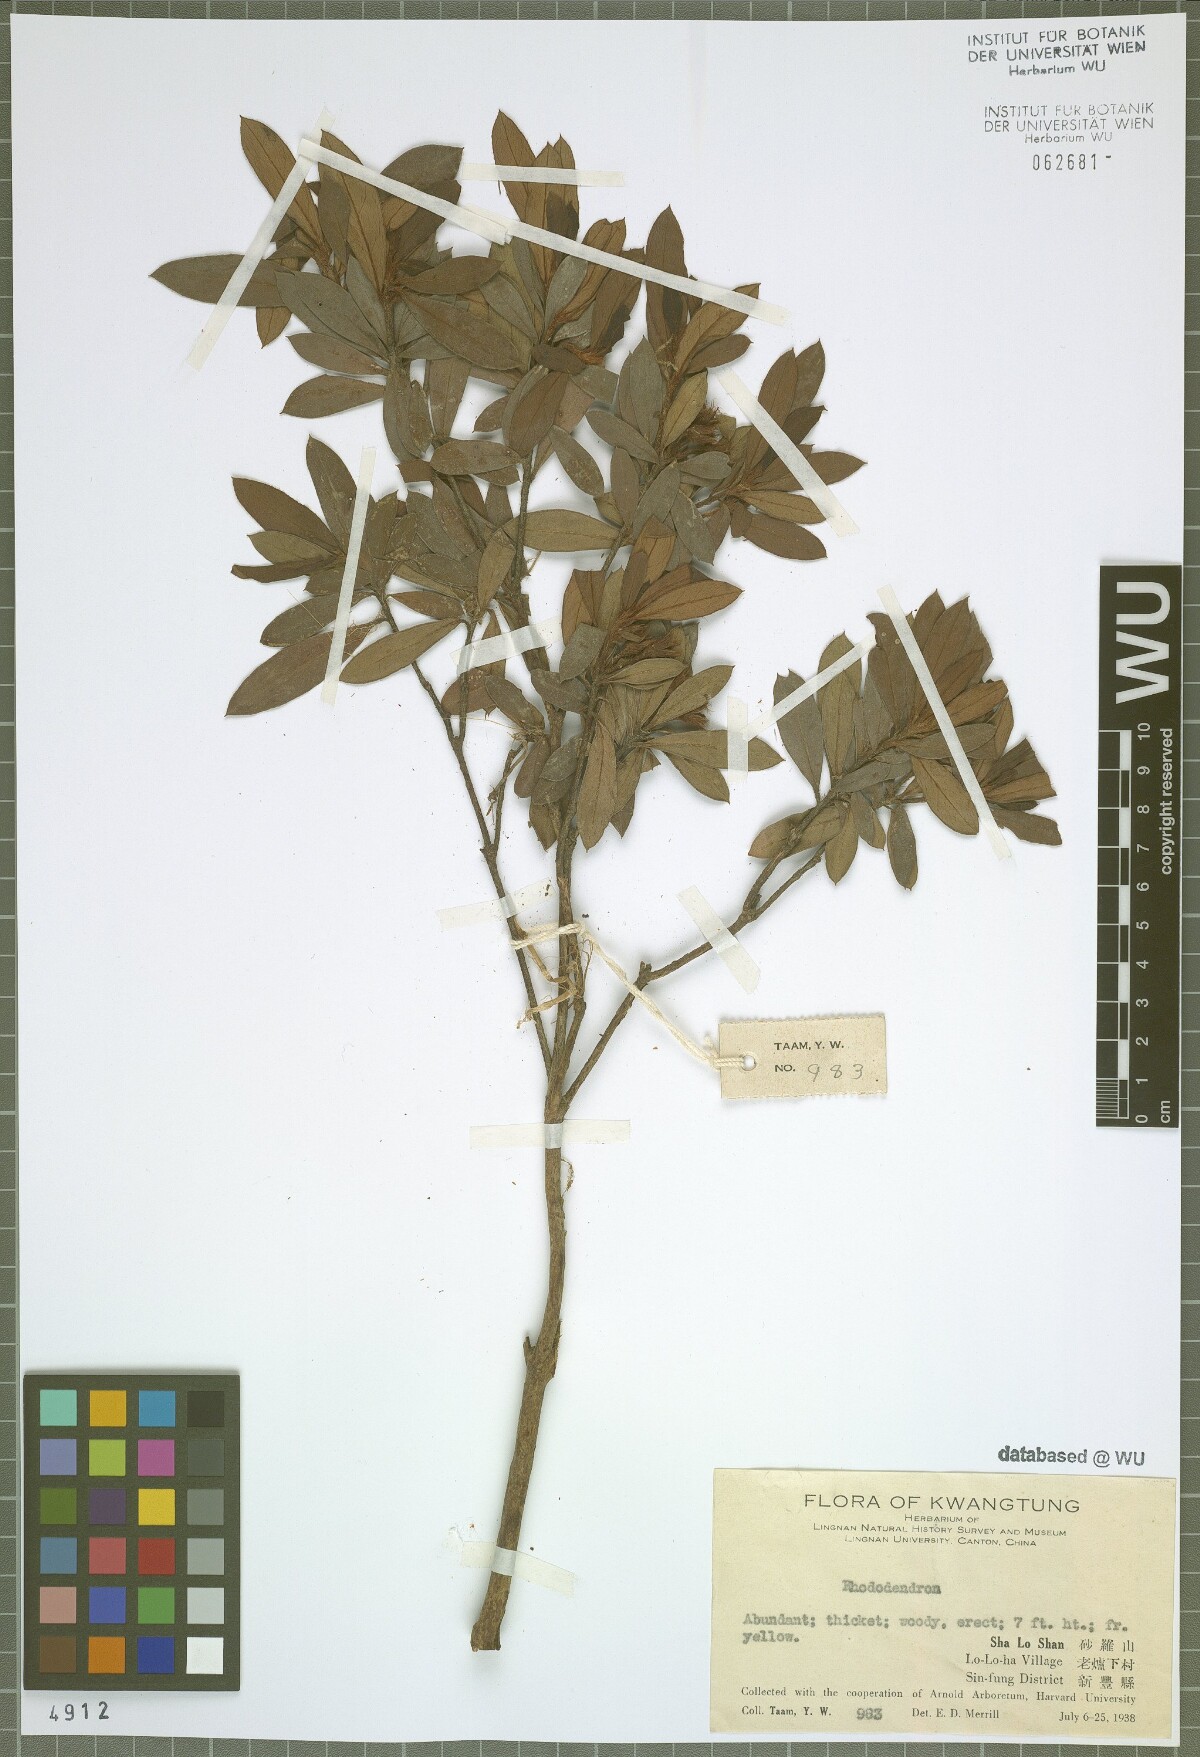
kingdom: Plantae
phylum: Tracheophyta
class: Magnoliopsida
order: Ericales
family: Ericaceae
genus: Rhododendron
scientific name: Rhododendron
